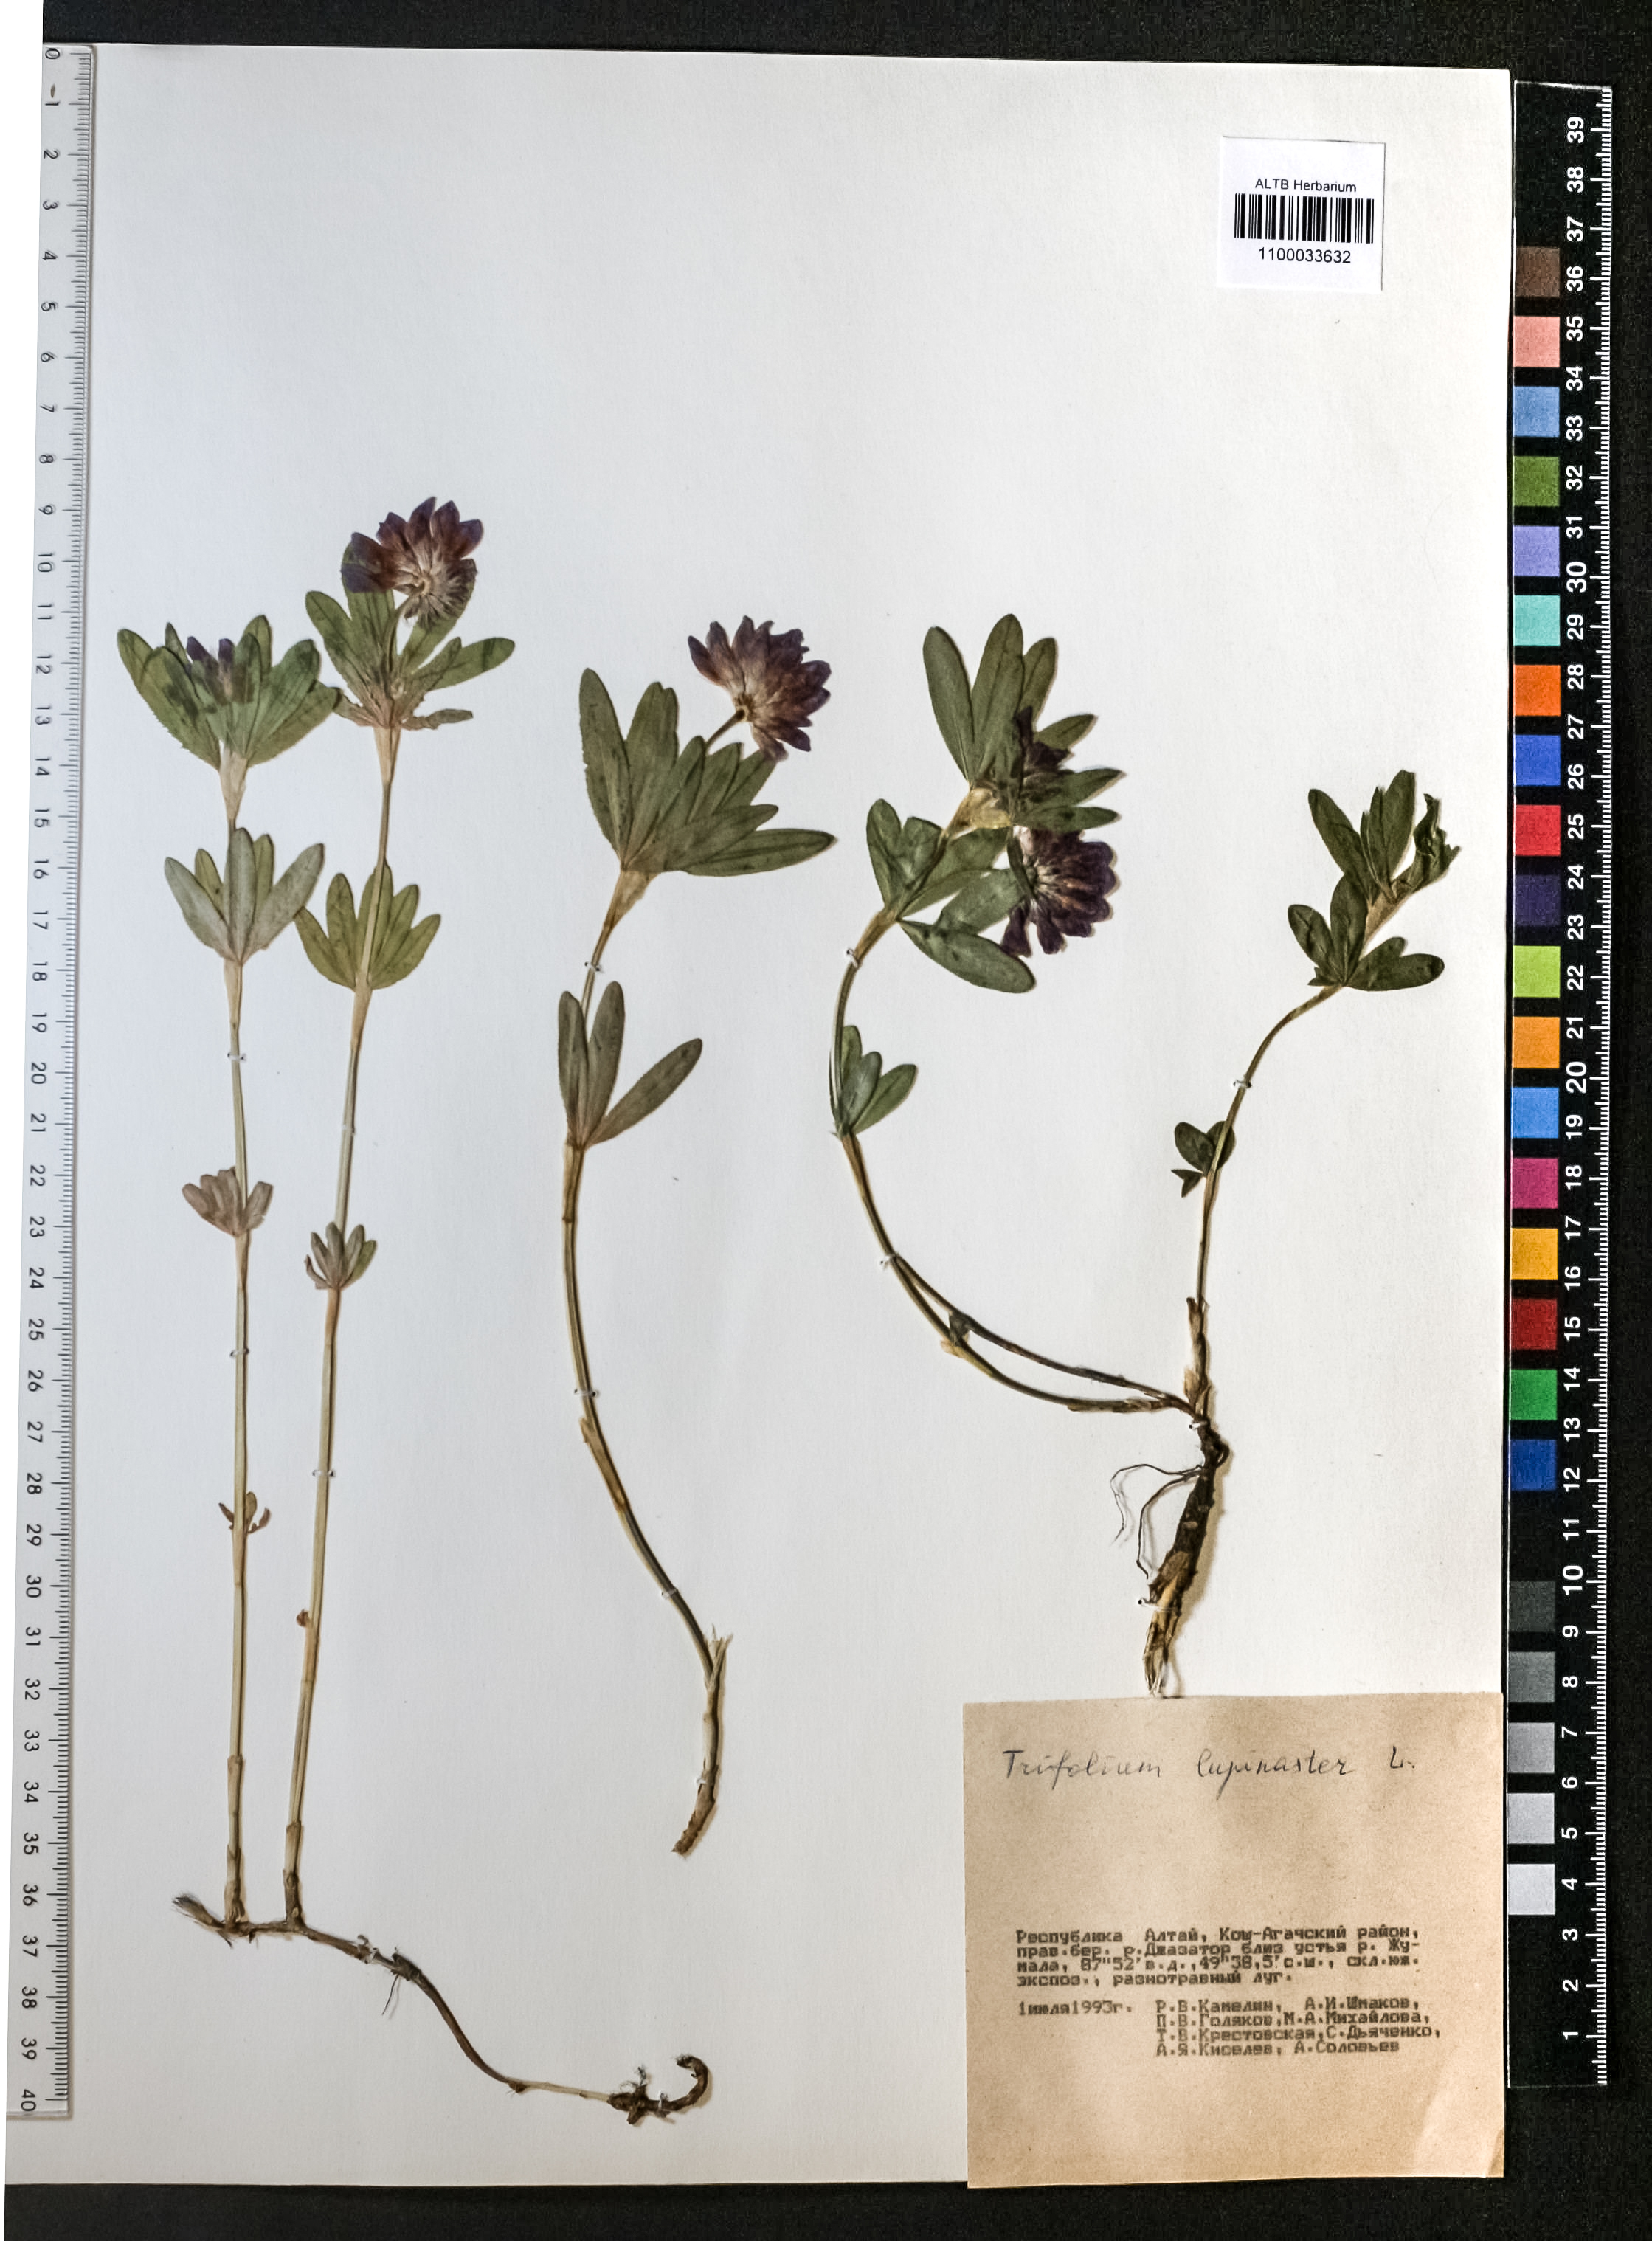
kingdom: Plantae
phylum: Tracheophyta
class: Magnoliopsida
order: Fabales
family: Fabaceae
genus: Trifolium
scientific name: Trifolium lupinaster
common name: Lupine clover
